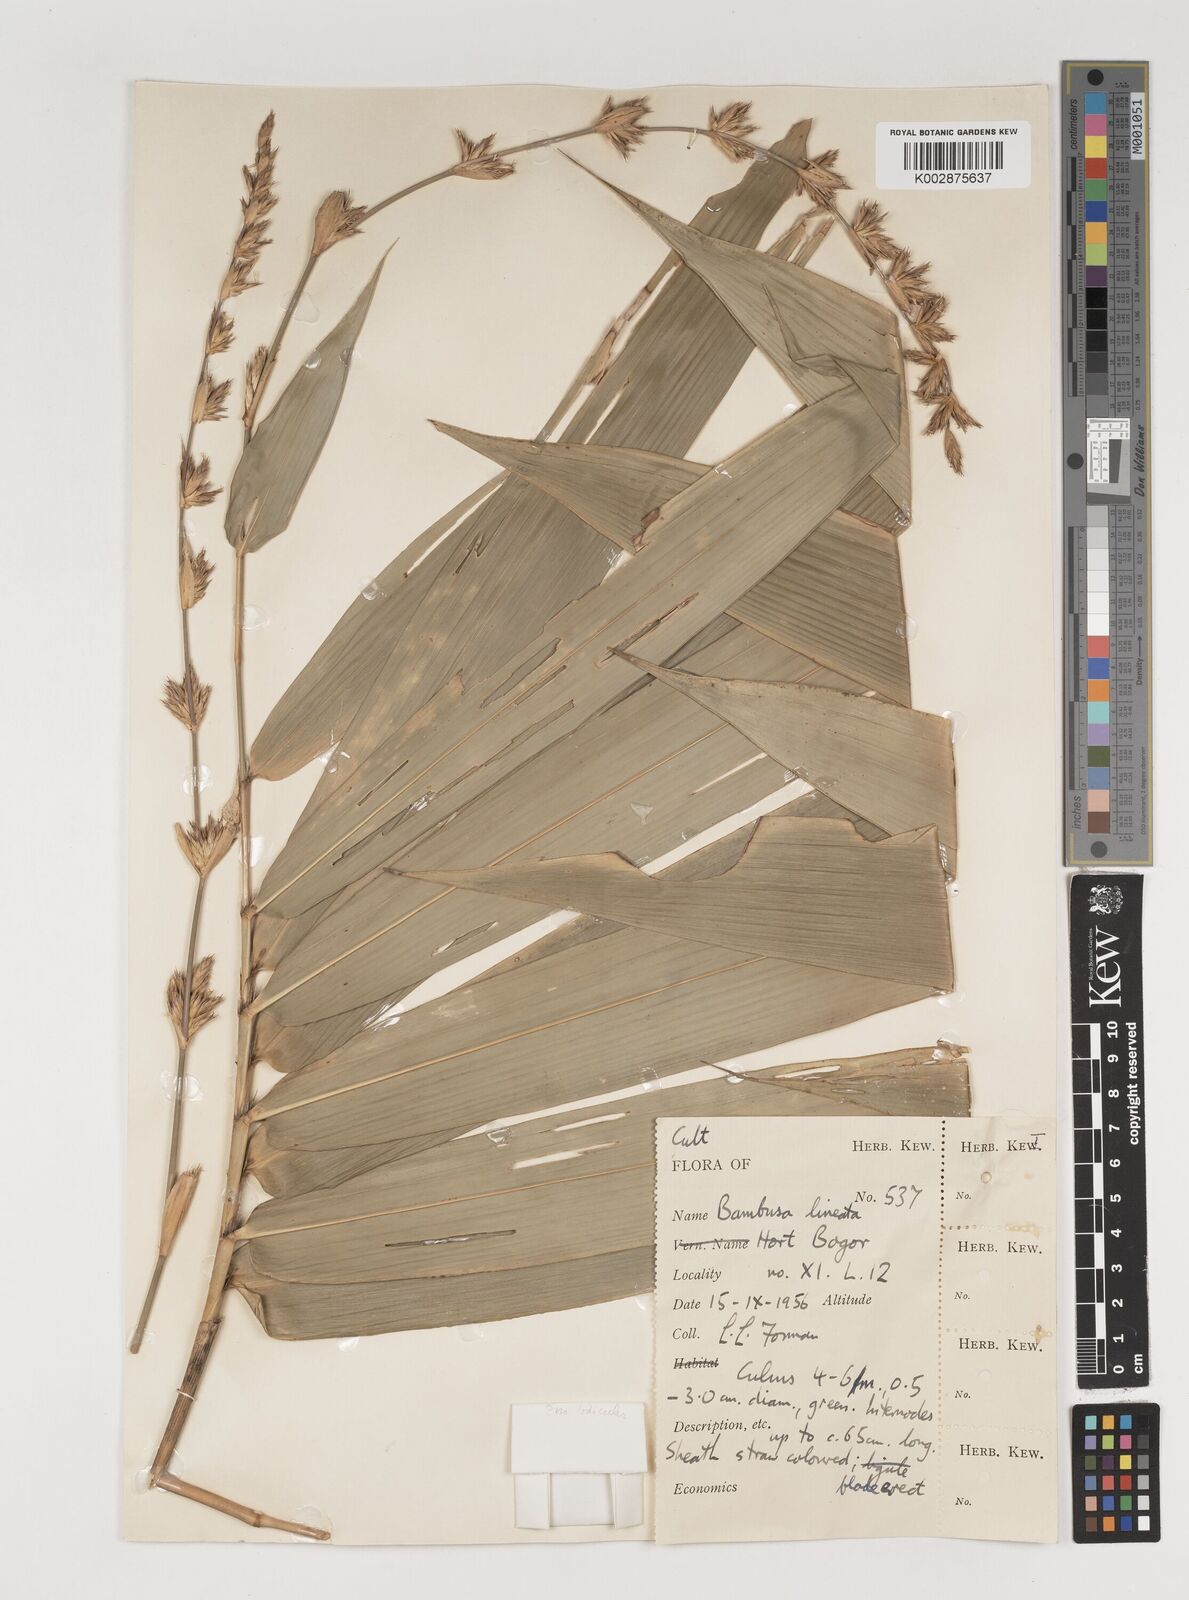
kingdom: Plantae
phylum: Tracheophyta
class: Liliopsida
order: Poales
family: Poaceae
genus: Neololeba
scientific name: Neololeba atra
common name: Cape bamboo
